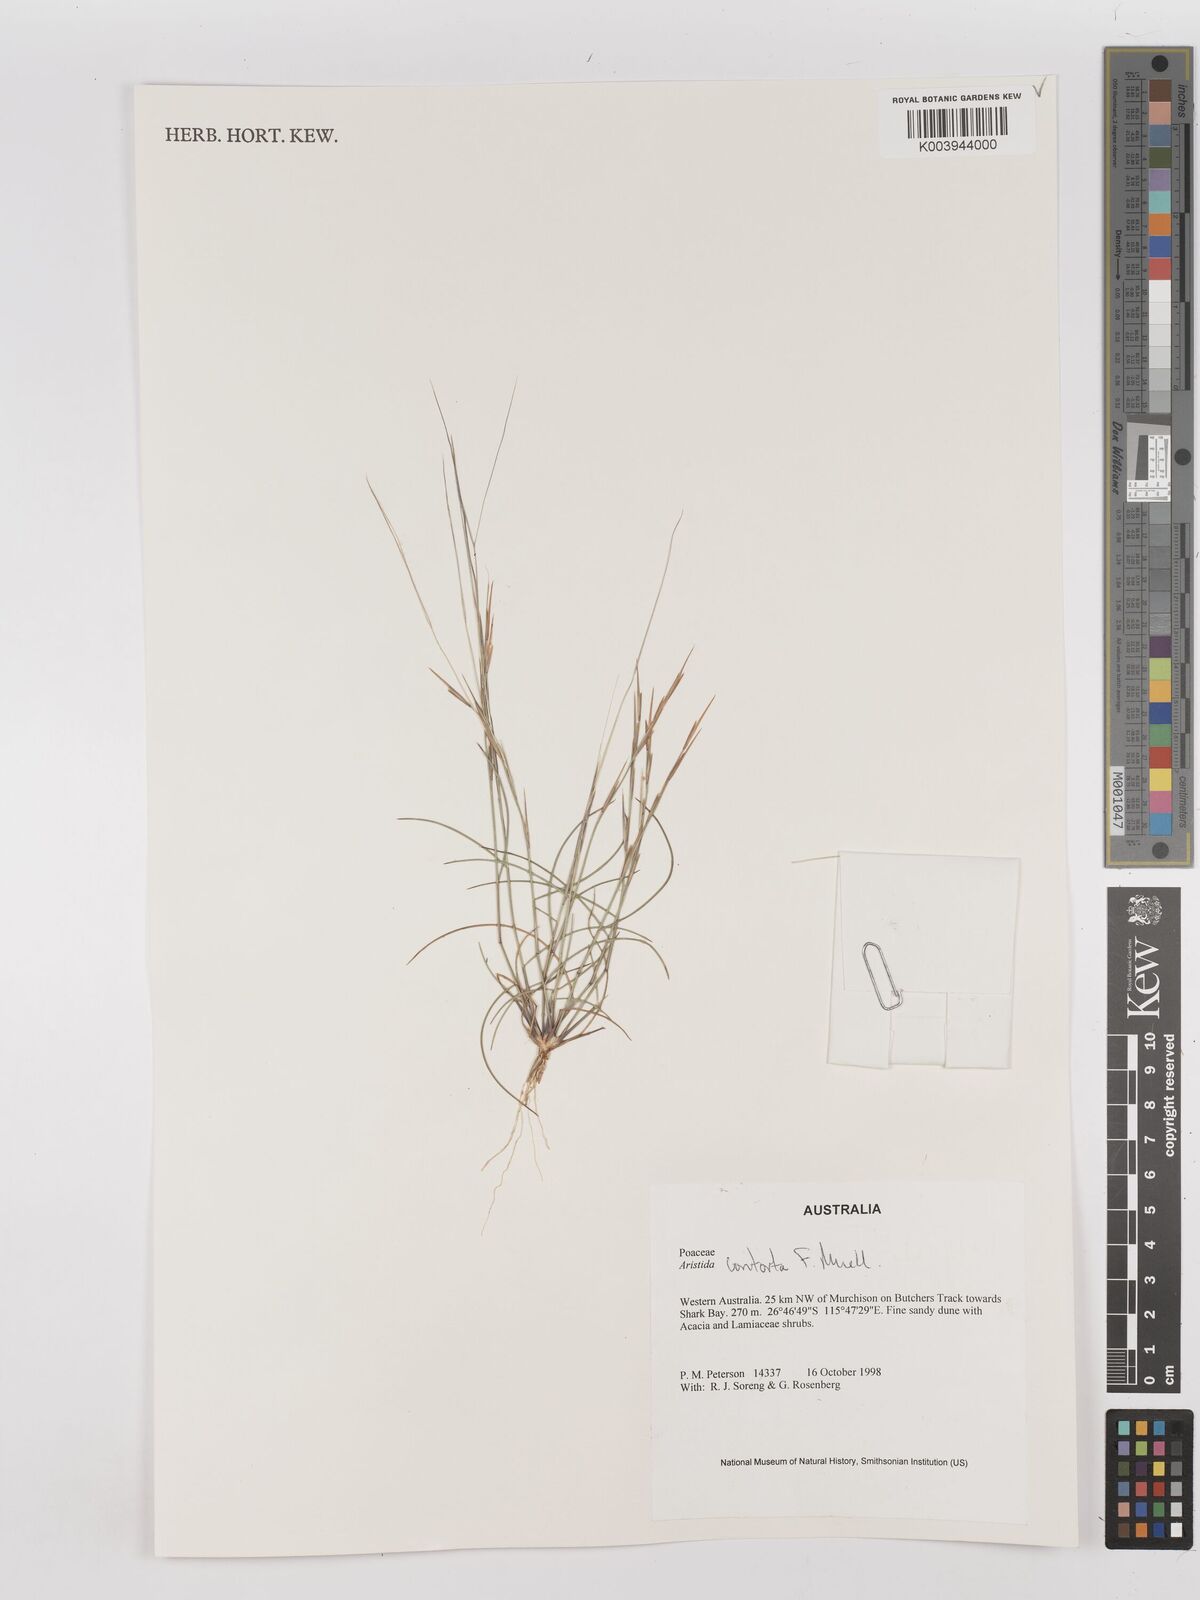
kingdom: Plantae
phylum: Tracheophyta
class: Liliopsida
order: Poales
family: Poaceae
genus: Aristida
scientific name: Aristida contorta
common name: Bunch kerosene grass
